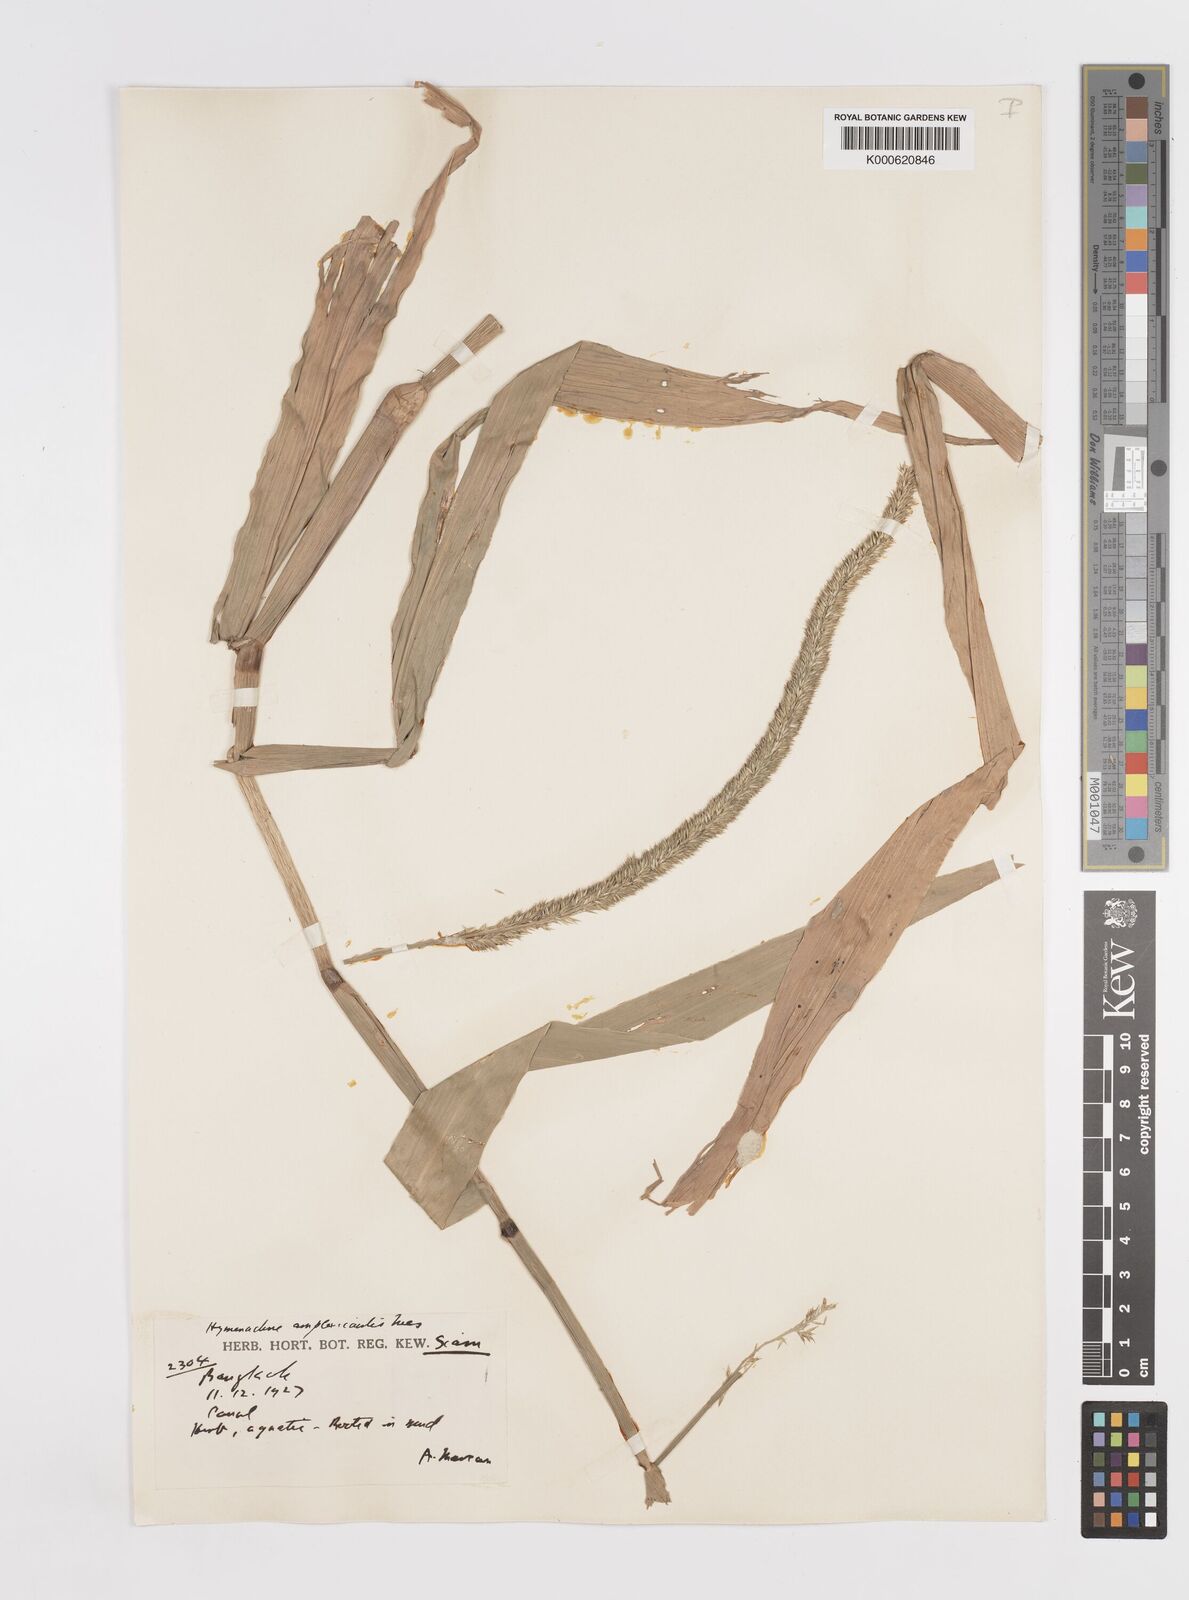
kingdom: Plantae
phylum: Tracheophyta
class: Liliopsida
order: Poales
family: Poaceae
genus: Hymenachne
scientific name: Hymenachne amplexicaulis
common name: Olive hymenachne
